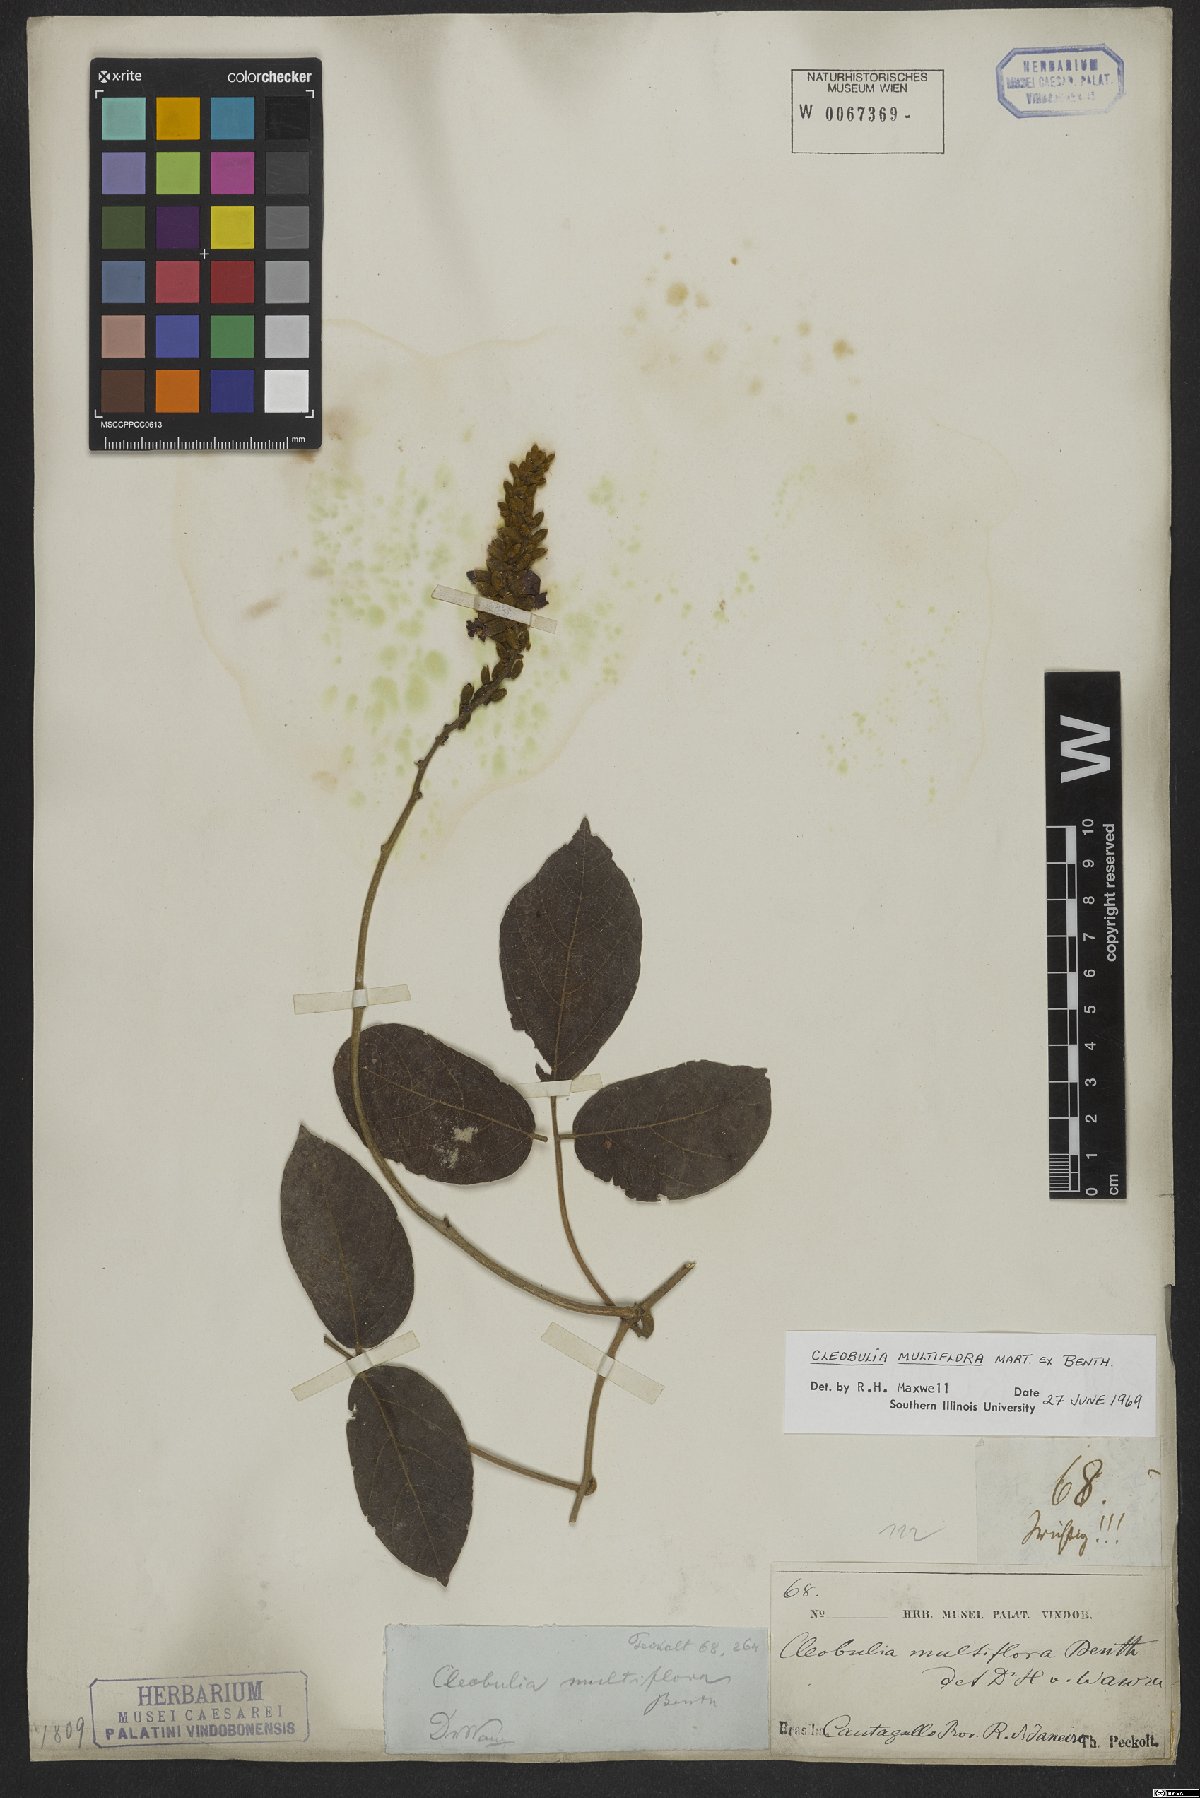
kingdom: Plantae
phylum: Tracheophyta
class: Magnoliopsida
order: Fabales
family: Fabaceae
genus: Cleobulia
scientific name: Cleobulia coccinea
